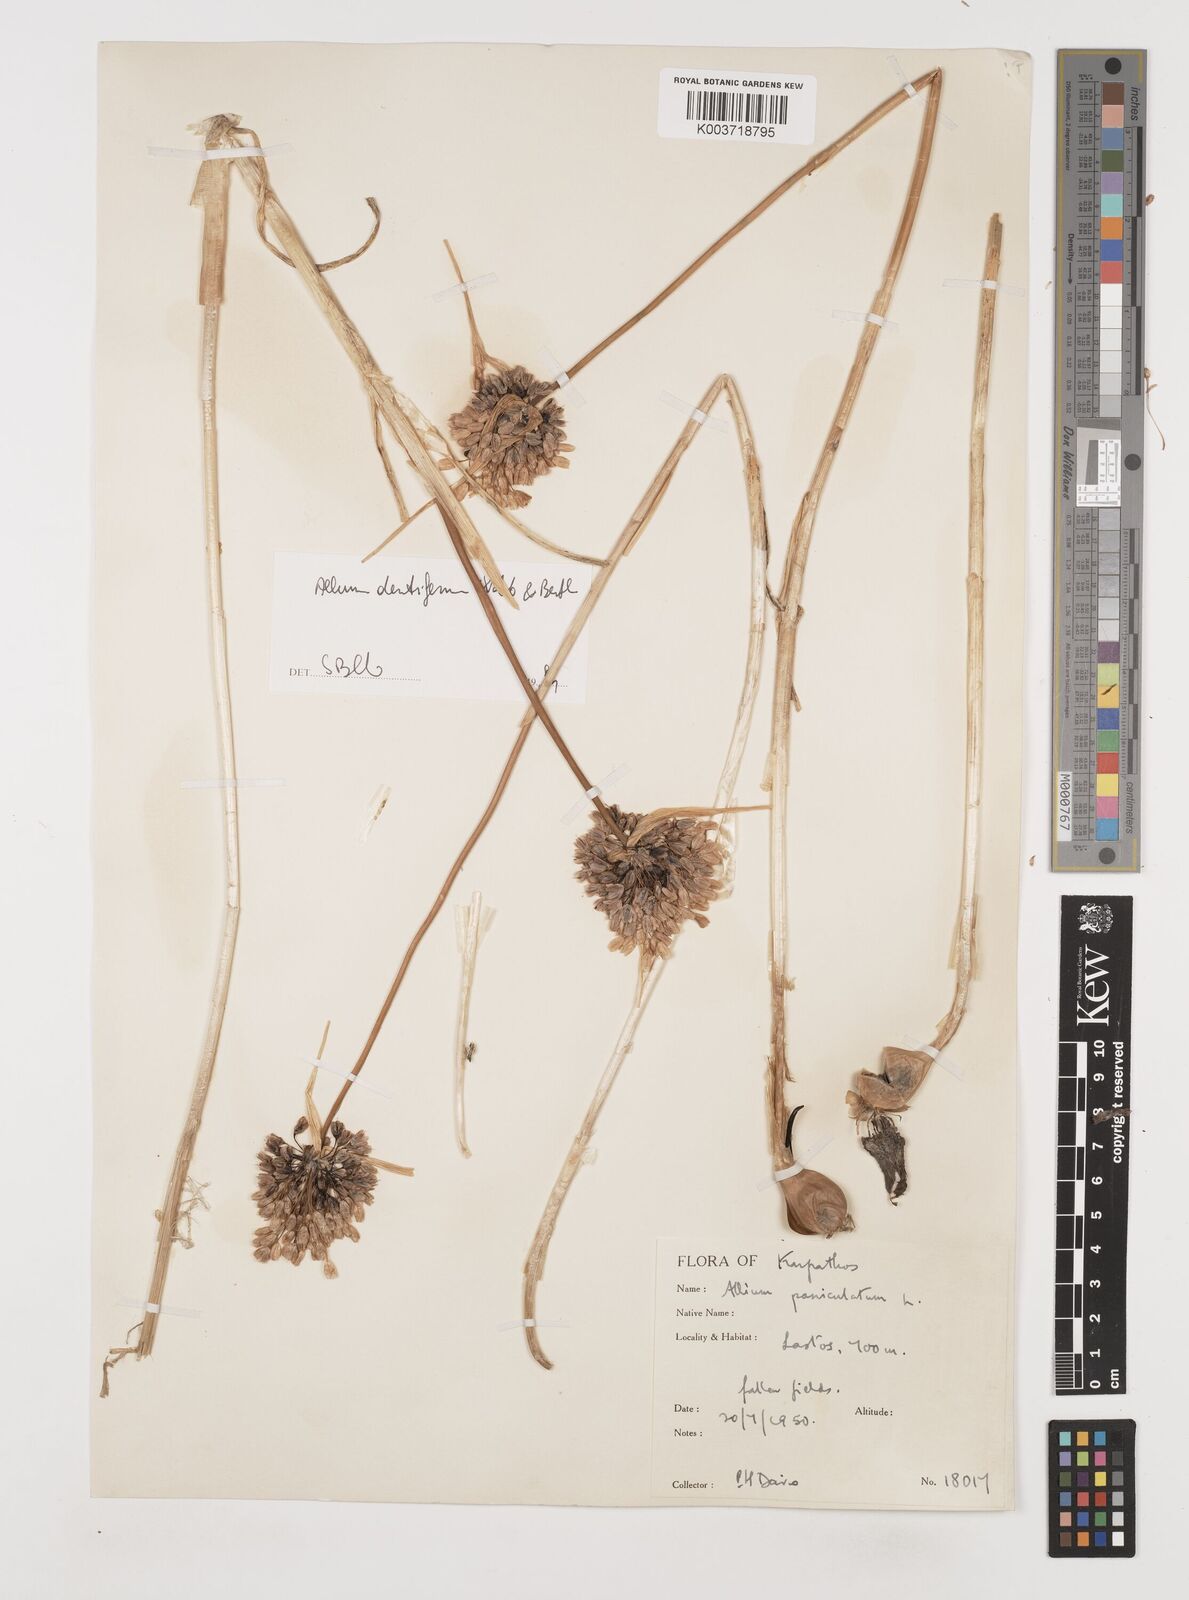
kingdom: Plantae
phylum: Tracheophyta
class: Liliopsida
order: Asparagales
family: Amaryllidaceae
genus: Allium
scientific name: Allium paniculatum
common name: Pale garlic
